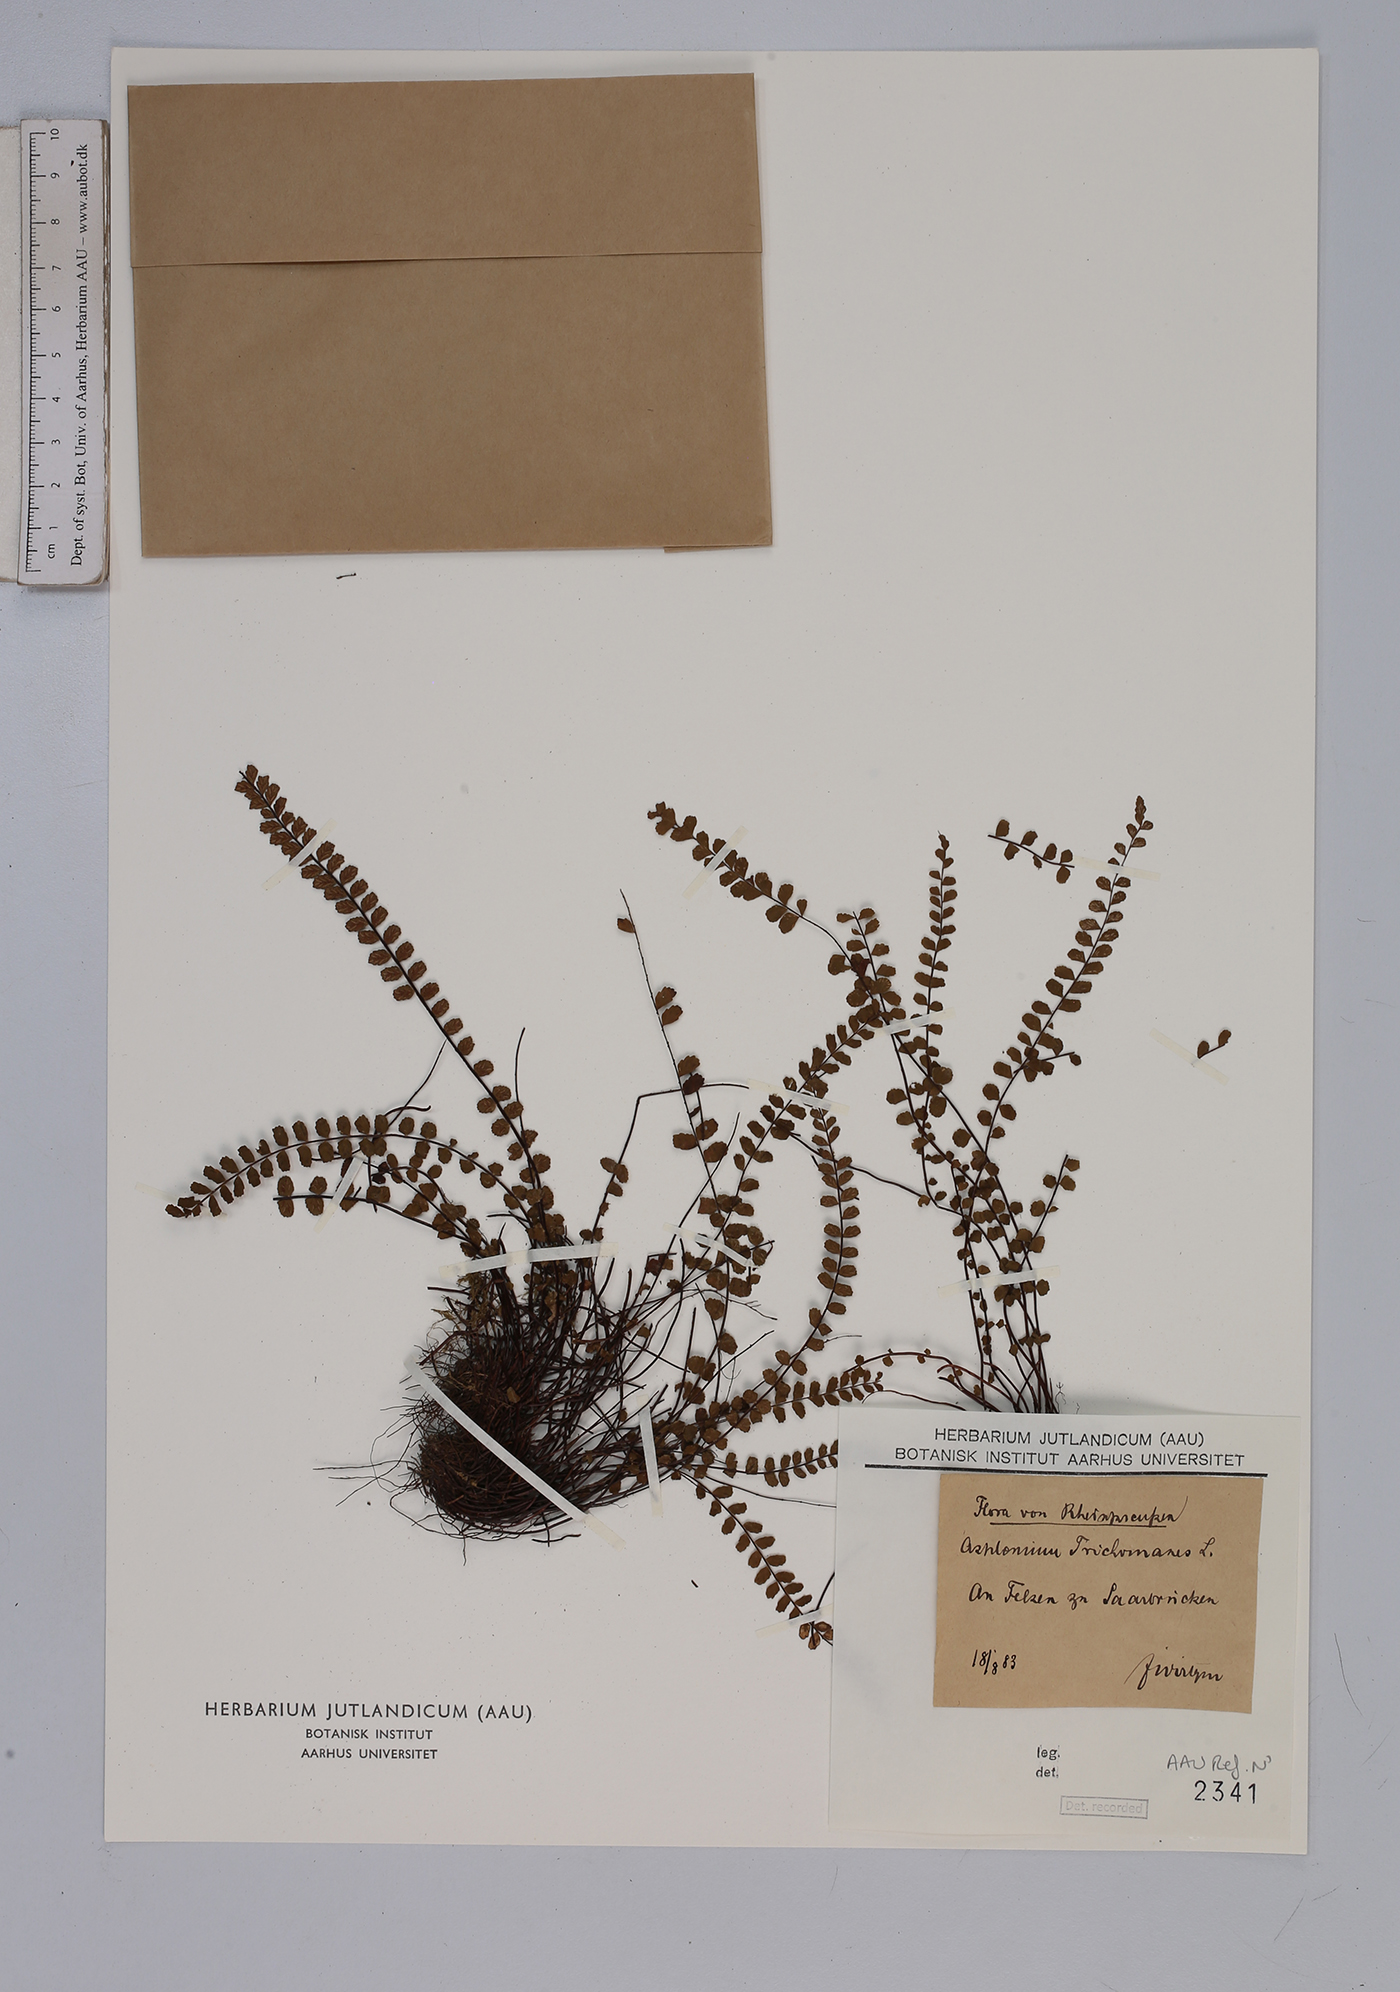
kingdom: Plantae
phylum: Tracheophyta
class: Polypodiopsida
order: Polypodiales
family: Aspleniaceae
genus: Asplenium
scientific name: Asplenium trichomanes
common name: Maidenhair spleenwort
